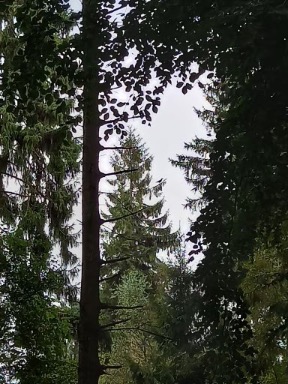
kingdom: Animalia
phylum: Chordata
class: Aves
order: Passeriformes
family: Corvidae
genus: Corvus
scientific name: Corvus corax
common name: Ravn
